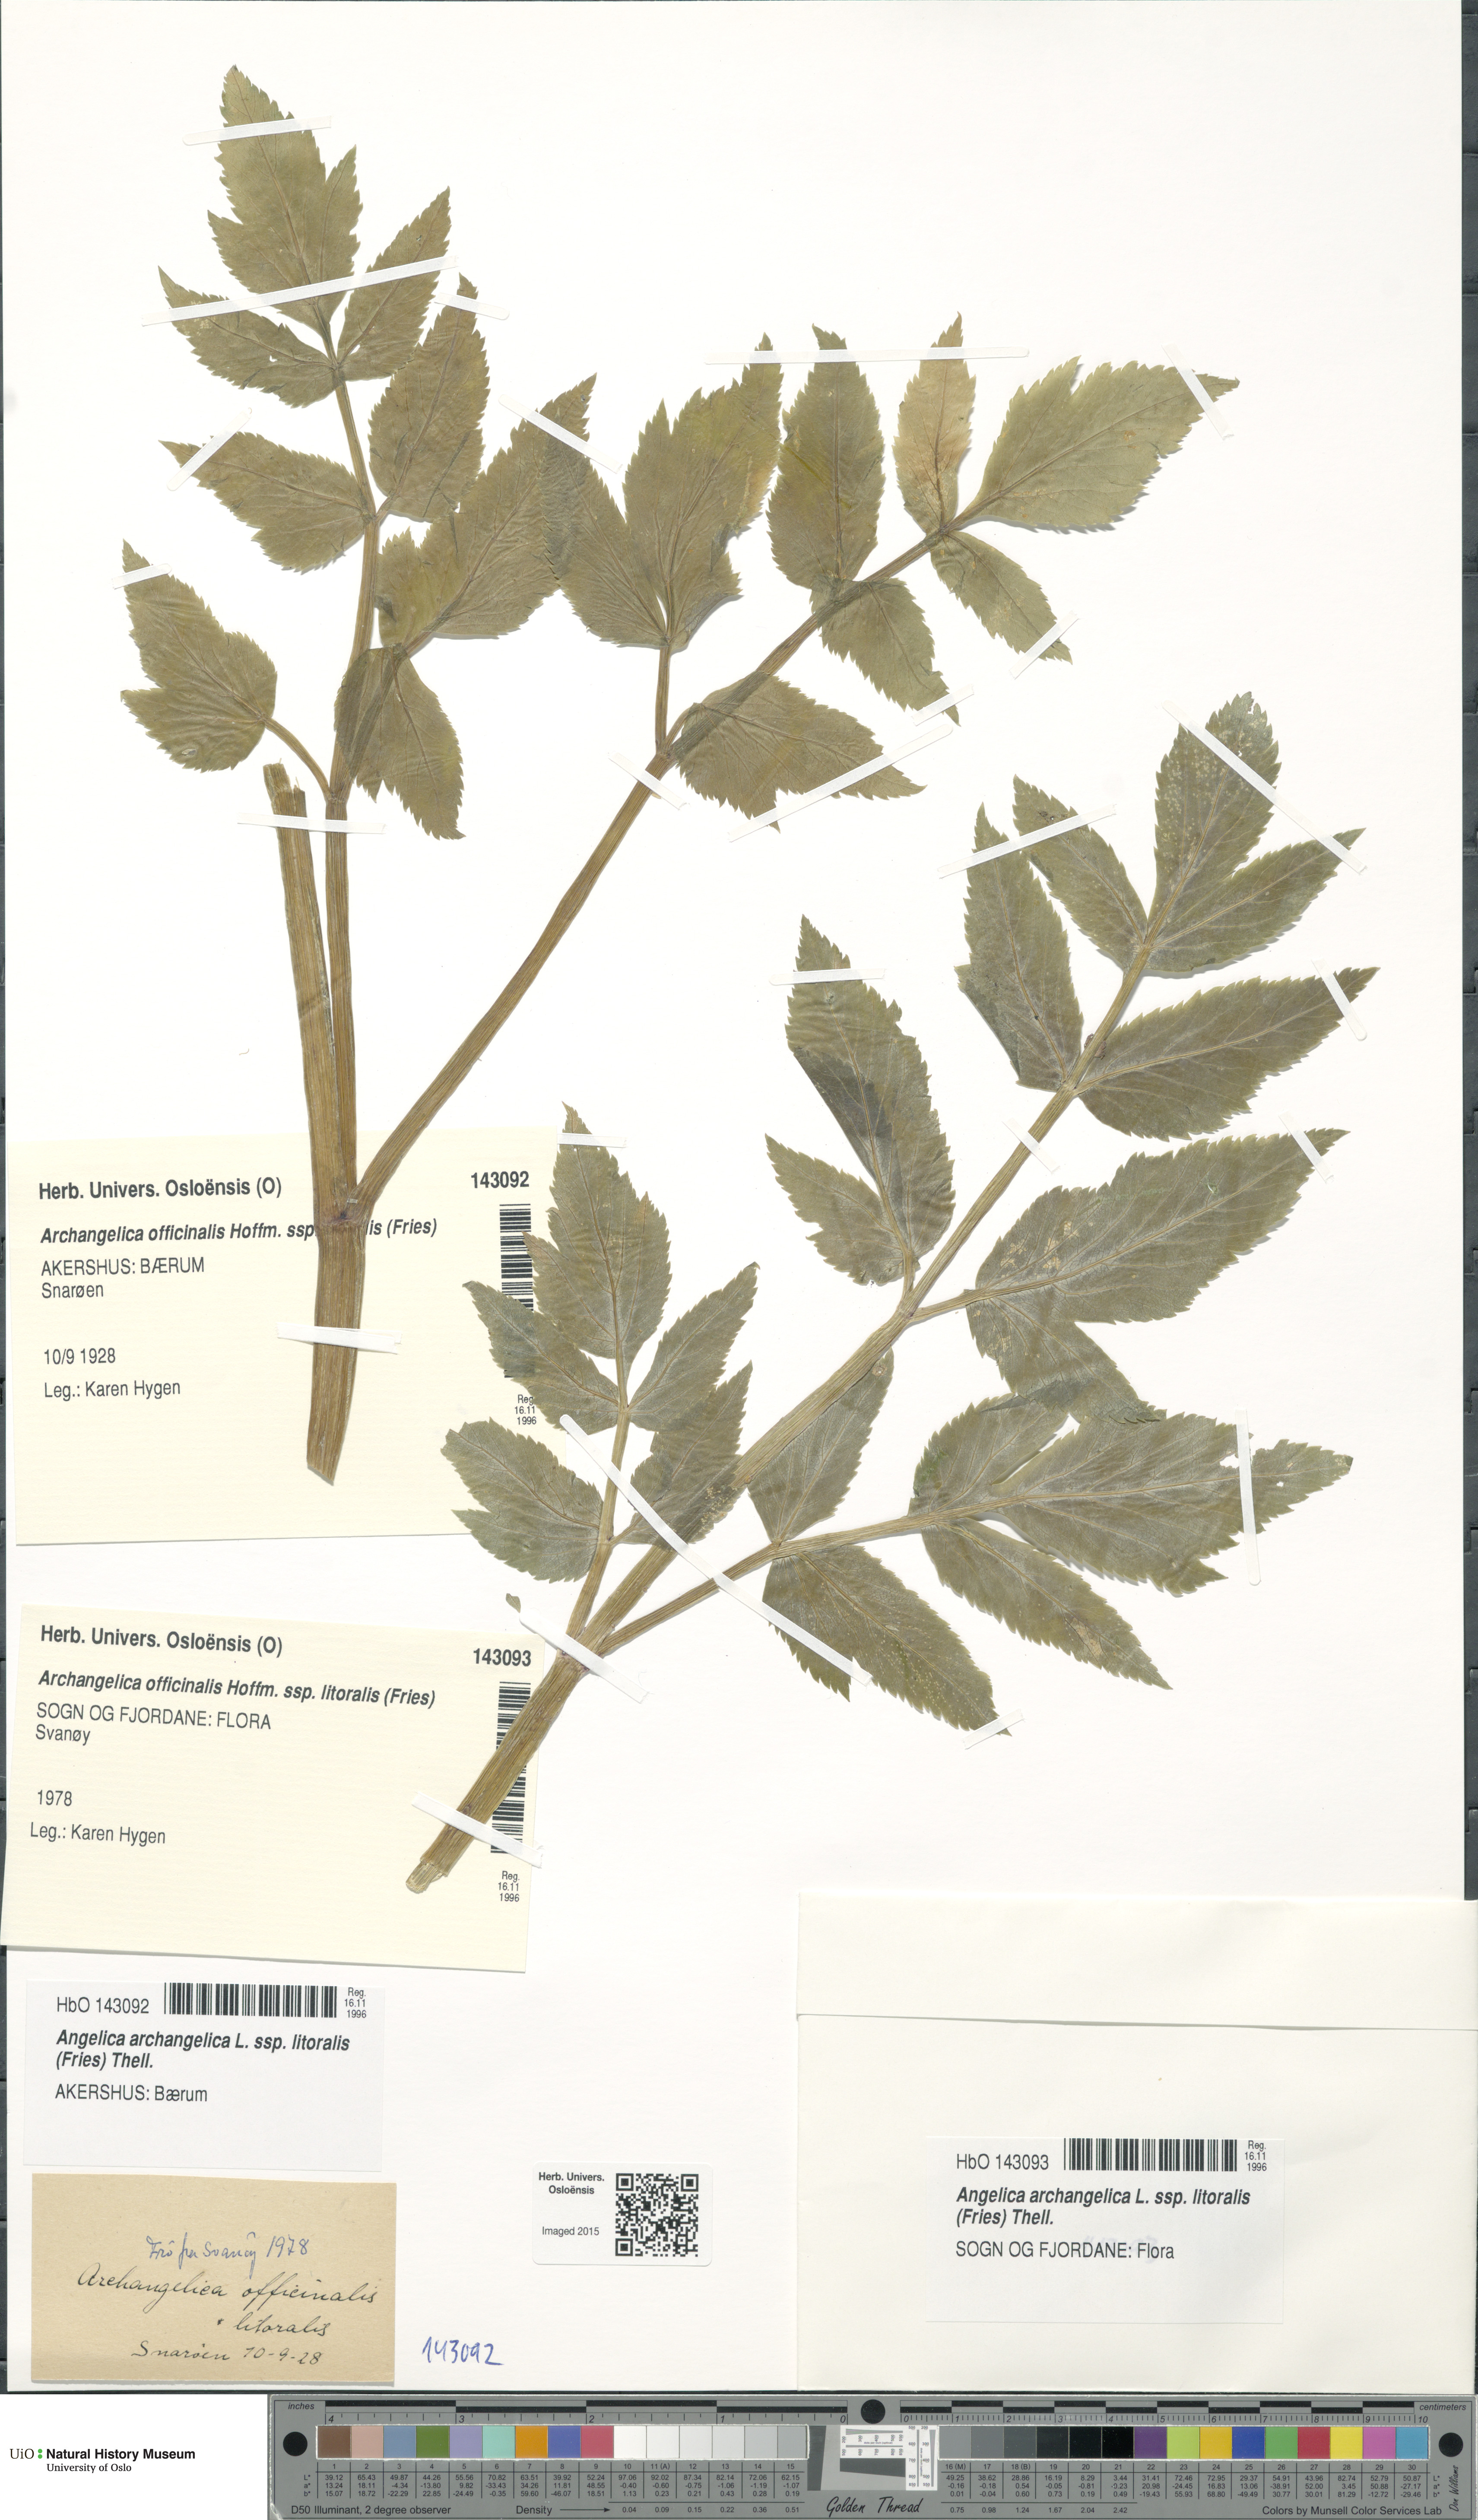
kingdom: Plantae
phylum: Tracheophyta
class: Magnoliopsida
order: Apiales
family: Apiaceae
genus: Angelica
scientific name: Angelica archangelica
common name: Garden angelica
